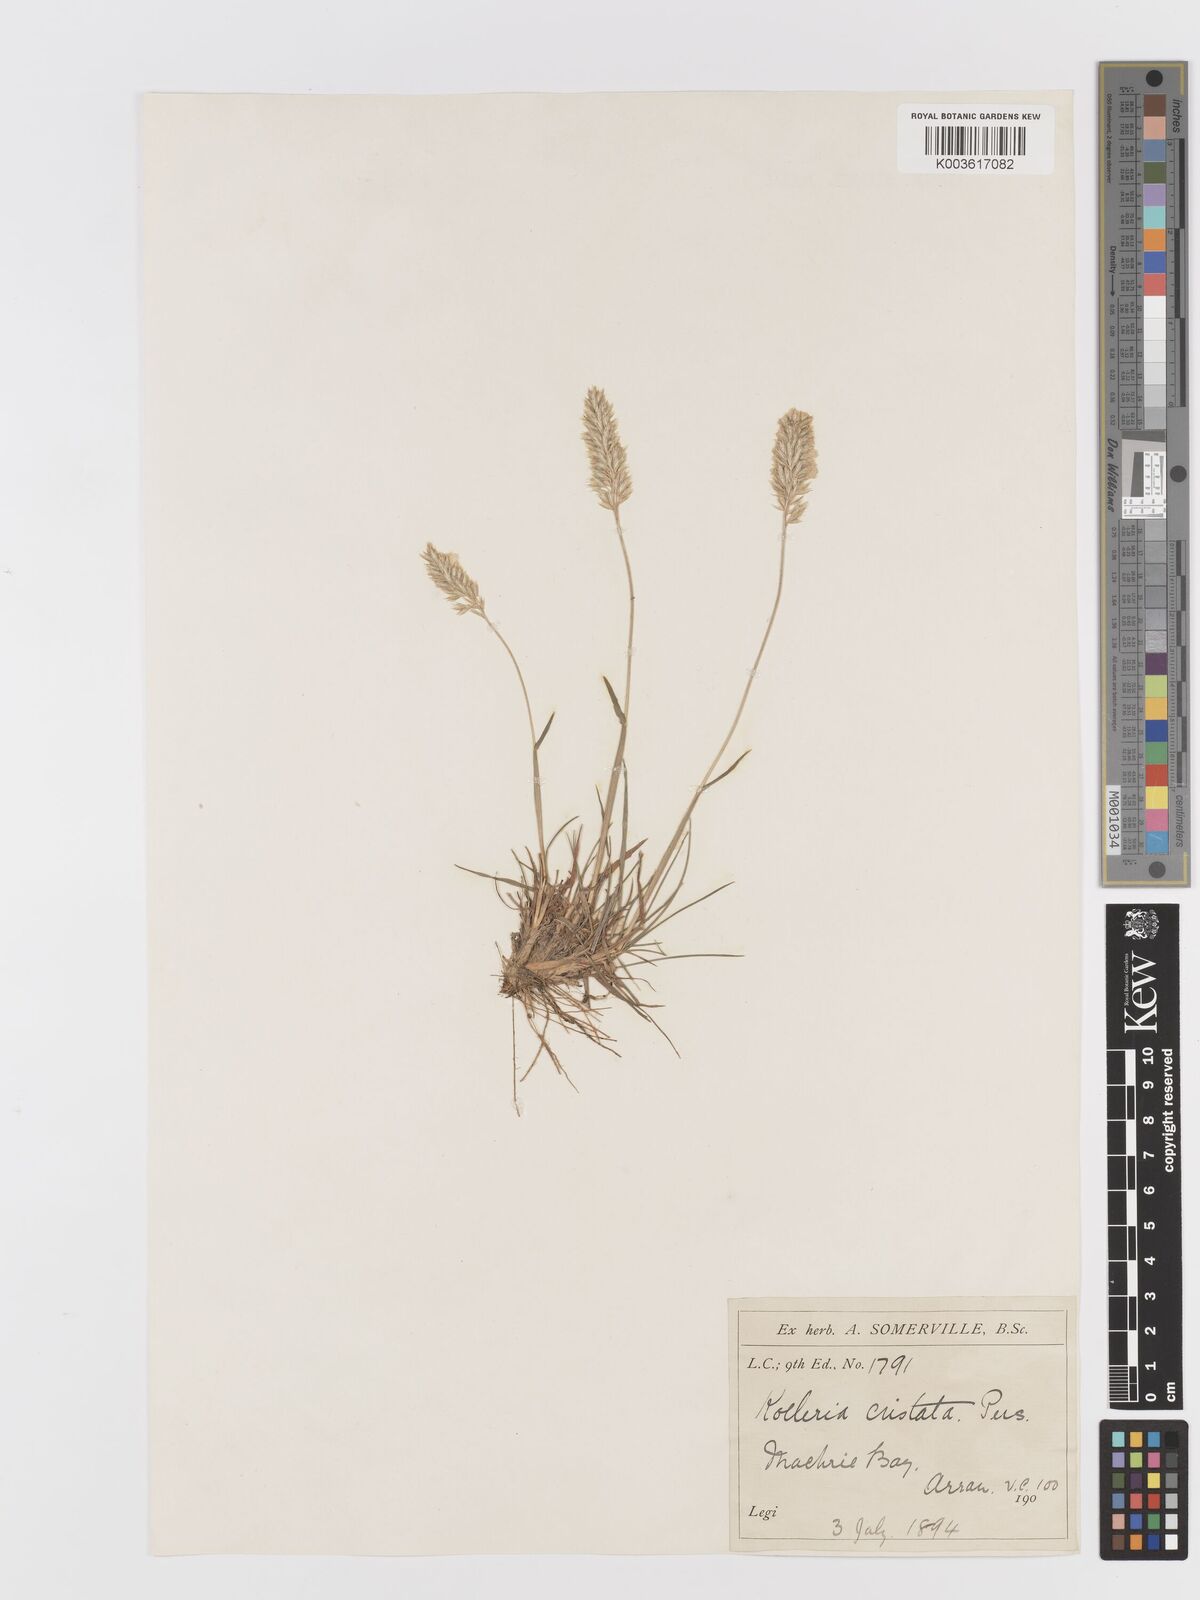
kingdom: Plantae
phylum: Tracheophyta
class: Liliopsida
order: Poales
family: Poaceae
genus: Koeleria
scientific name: Koeleria macrantha
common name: Crested hair-grass
